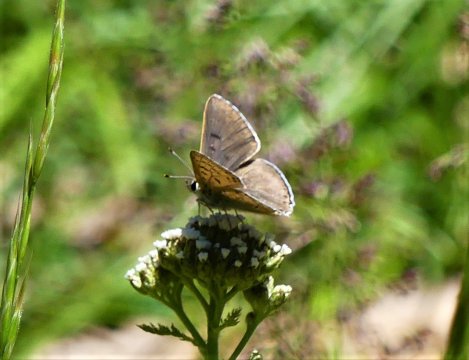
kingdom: Animalia
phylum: Arthropoda
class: Insecta
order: Lepidoptera
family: Lycaenidae
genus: Lycaena
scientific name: Lycaena xanthoides
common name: Great Copper
